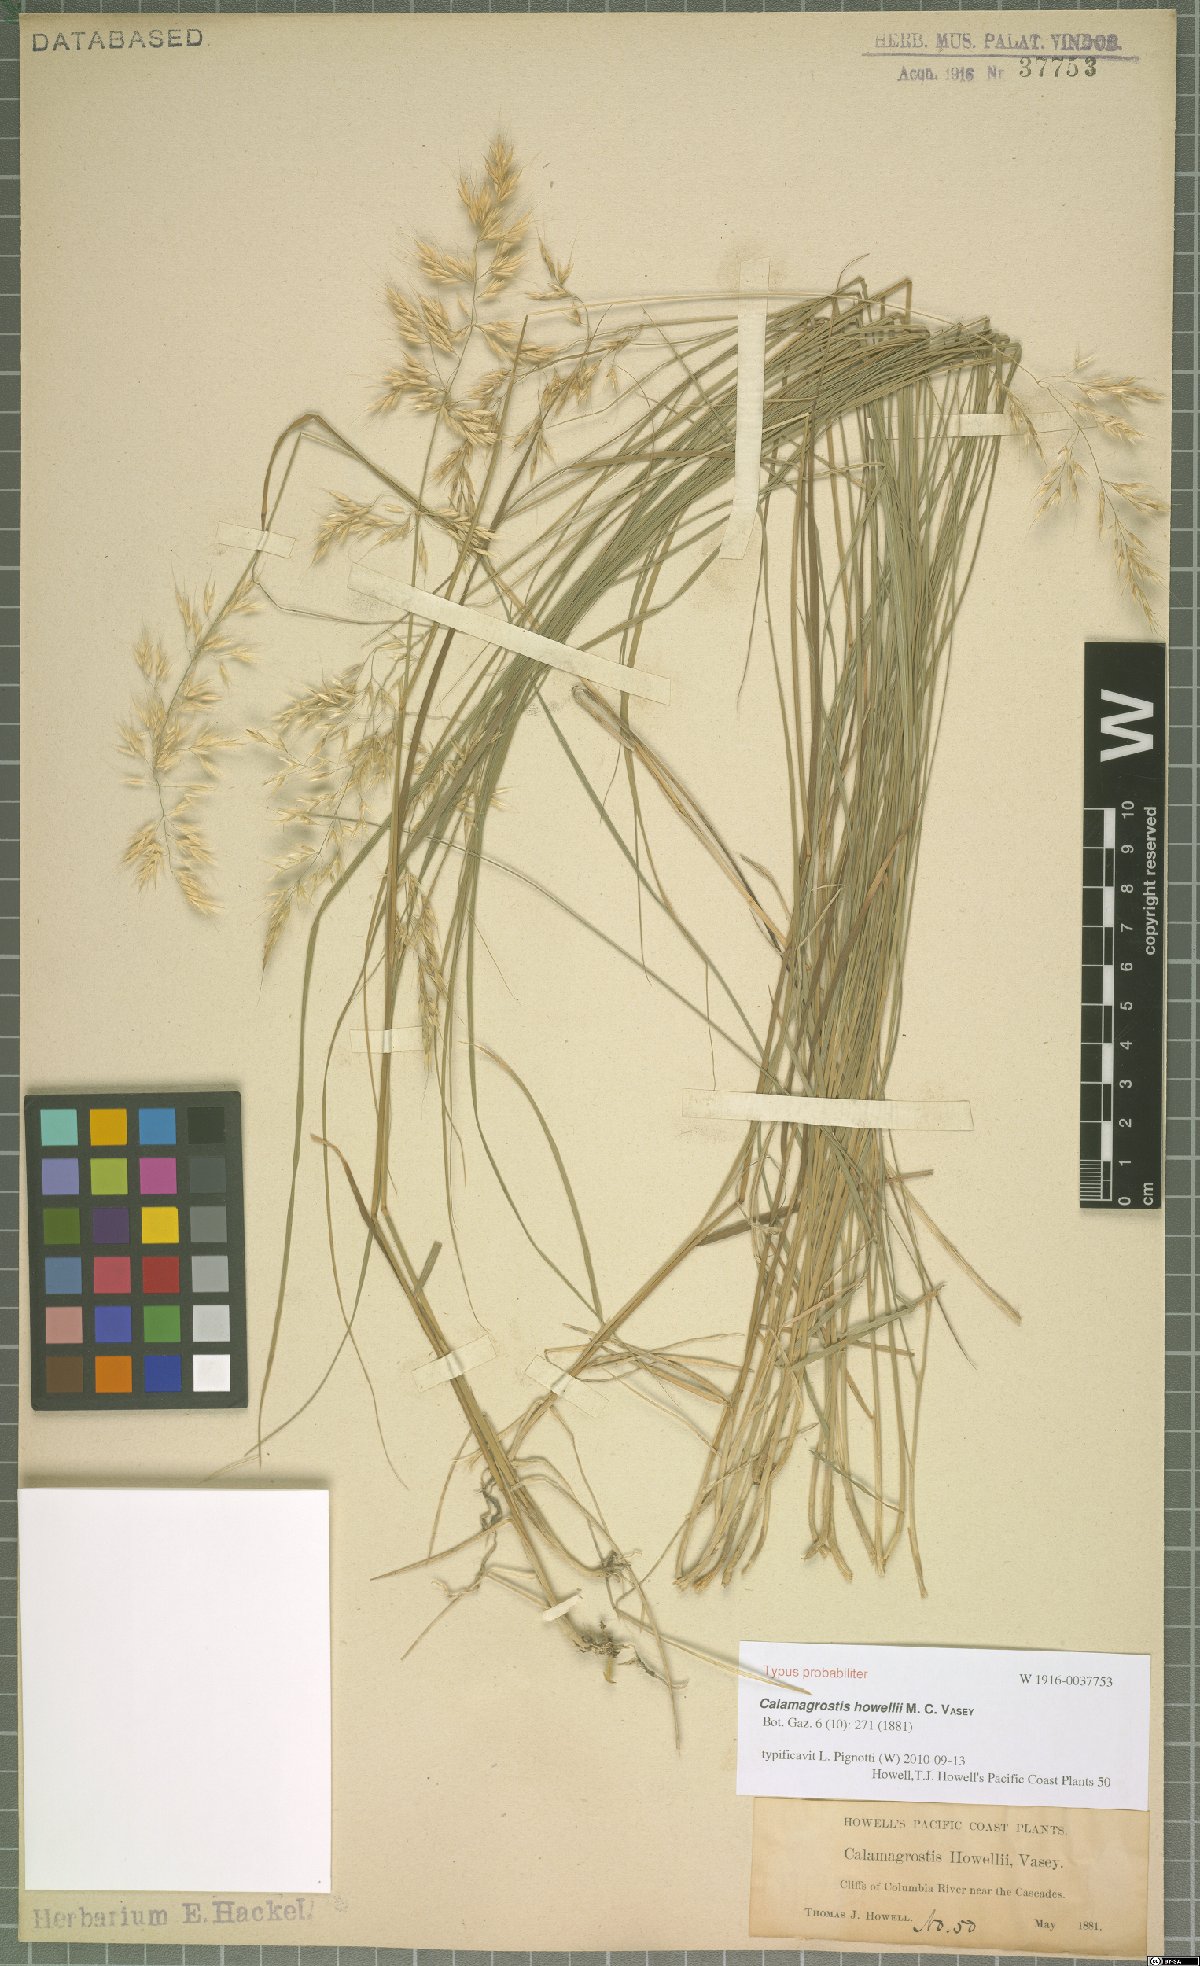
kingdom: Plantae
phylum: Tracheophyta
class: Liliopsida
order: Poales
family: Poaceae
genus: Calamagrostis
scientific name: Calamagrostis howellii
